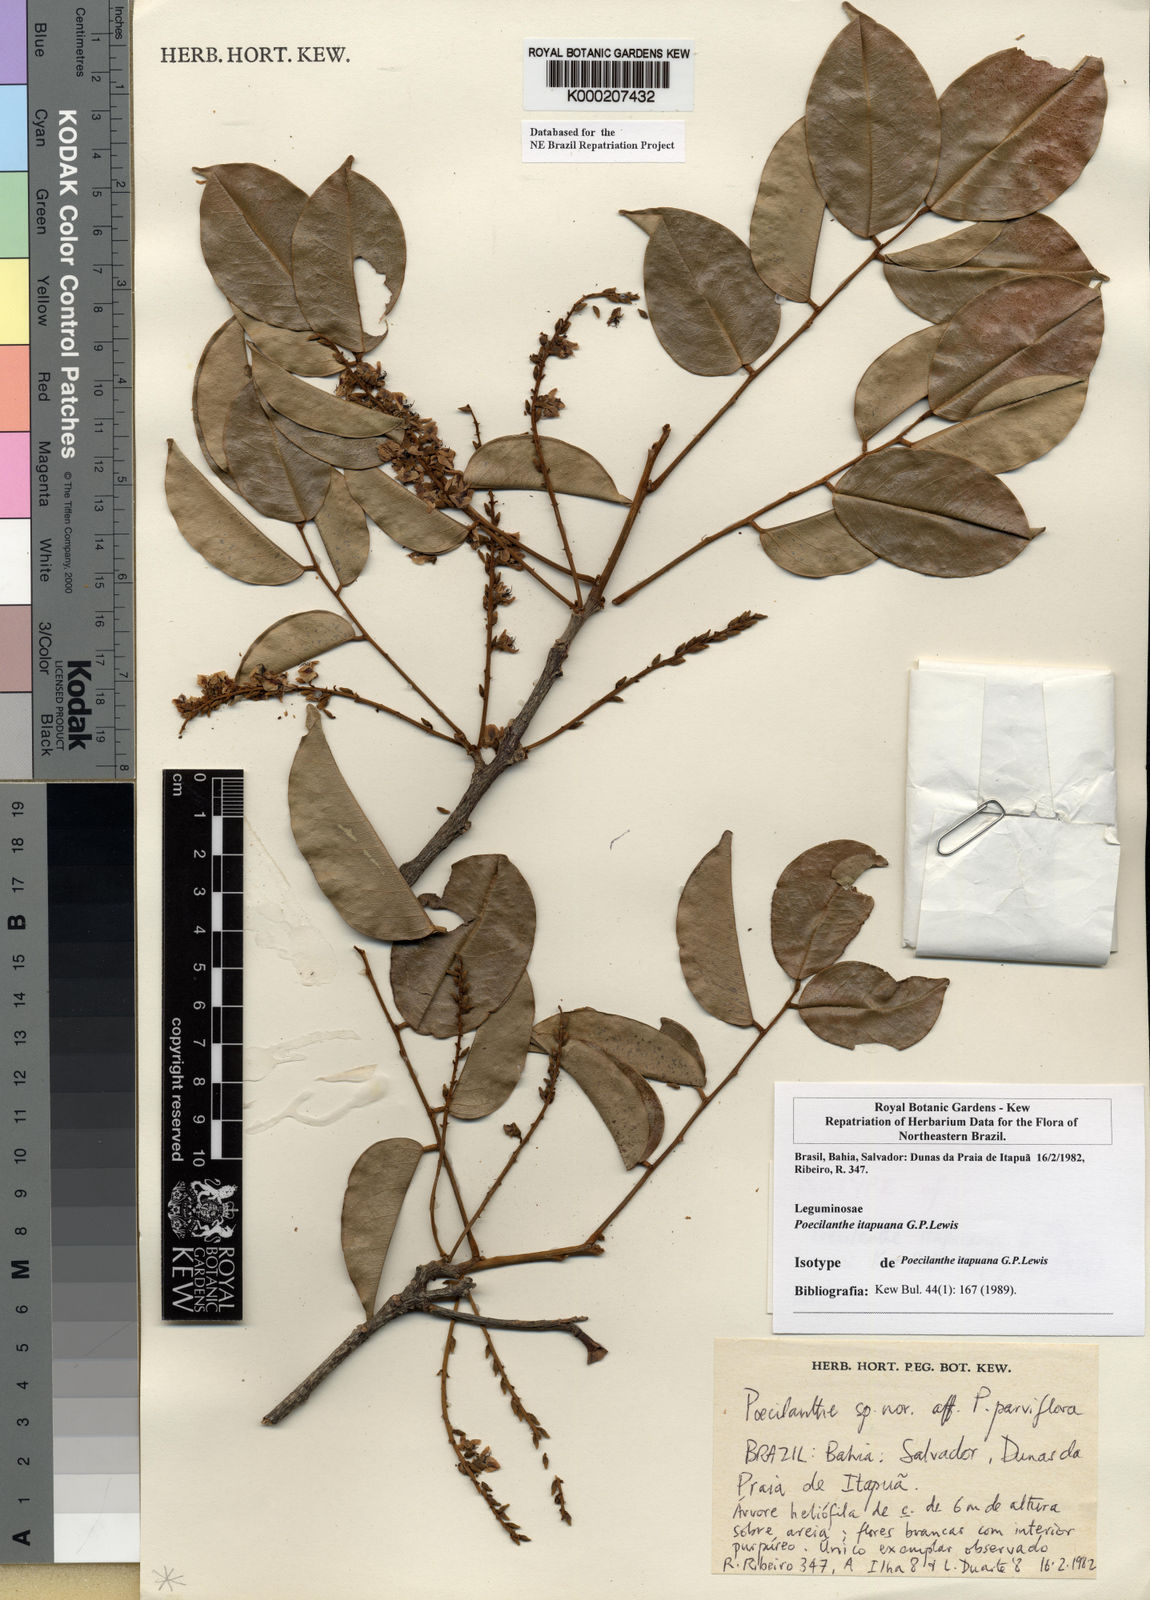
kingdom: Plantae
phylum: Tracheophyta
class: Magnoliopsida
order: Fabales
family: Fabaceae
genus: Poecilanthe
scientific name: Poecilanthe itapuana
